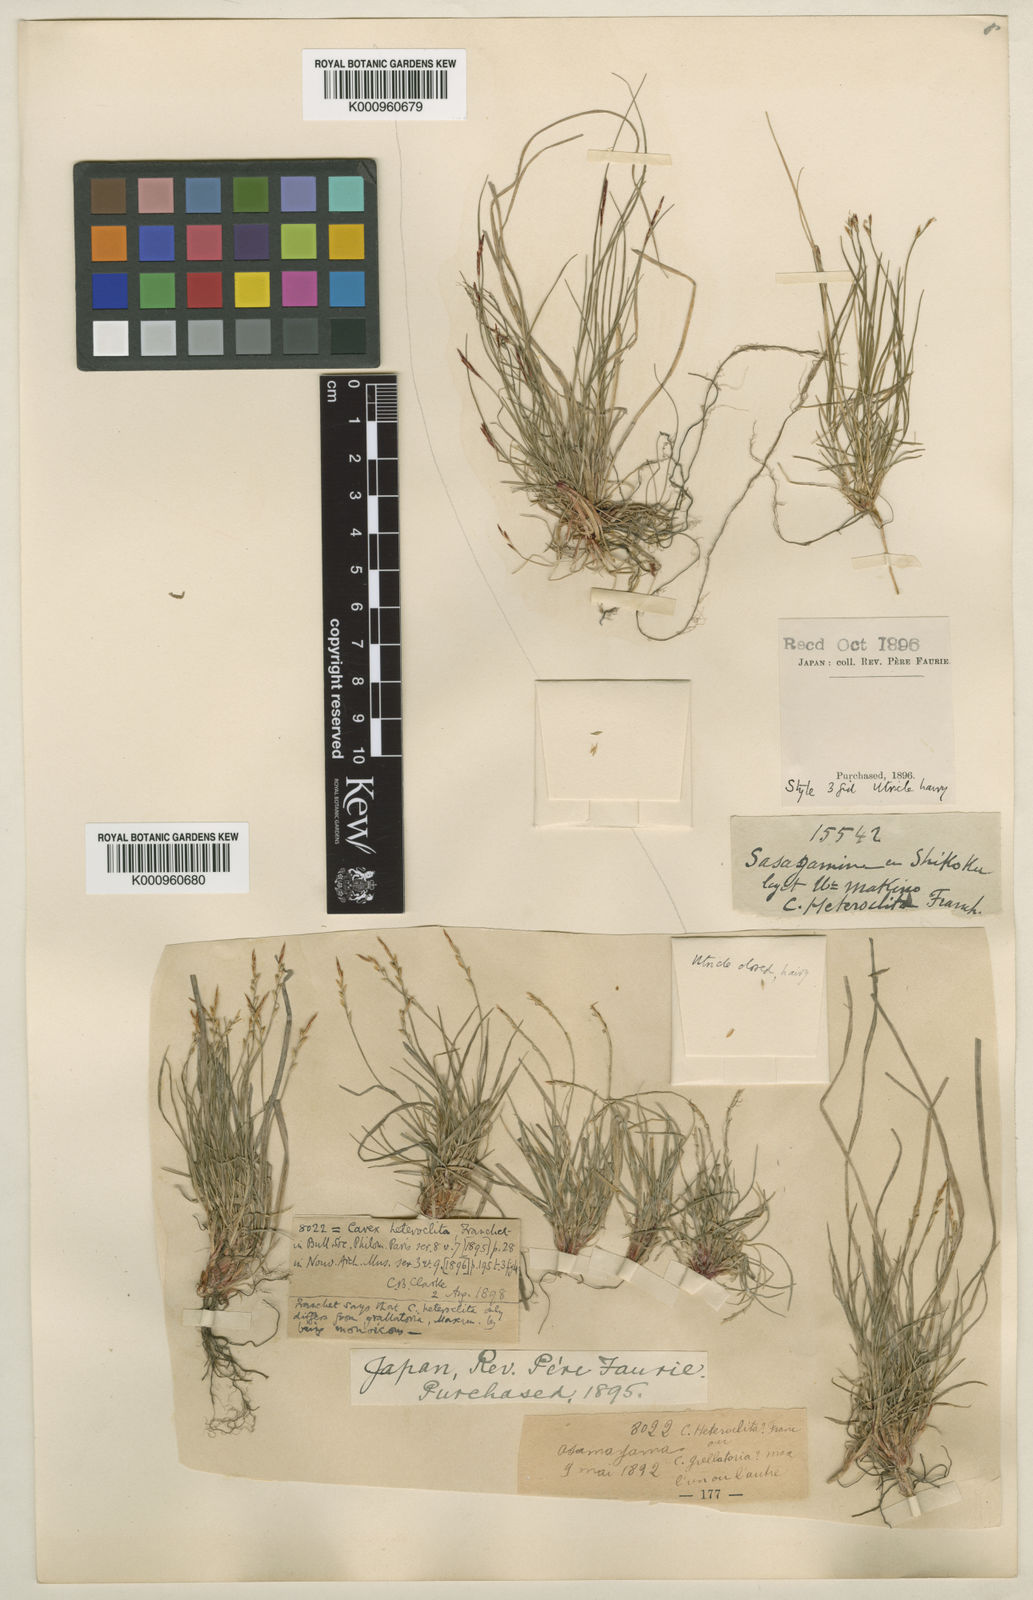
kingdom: Plantae
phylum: Tracheophyta
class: Liliopsida
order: Poales
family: Cyperaceae
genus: Carex
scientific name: Carex grallatoria
